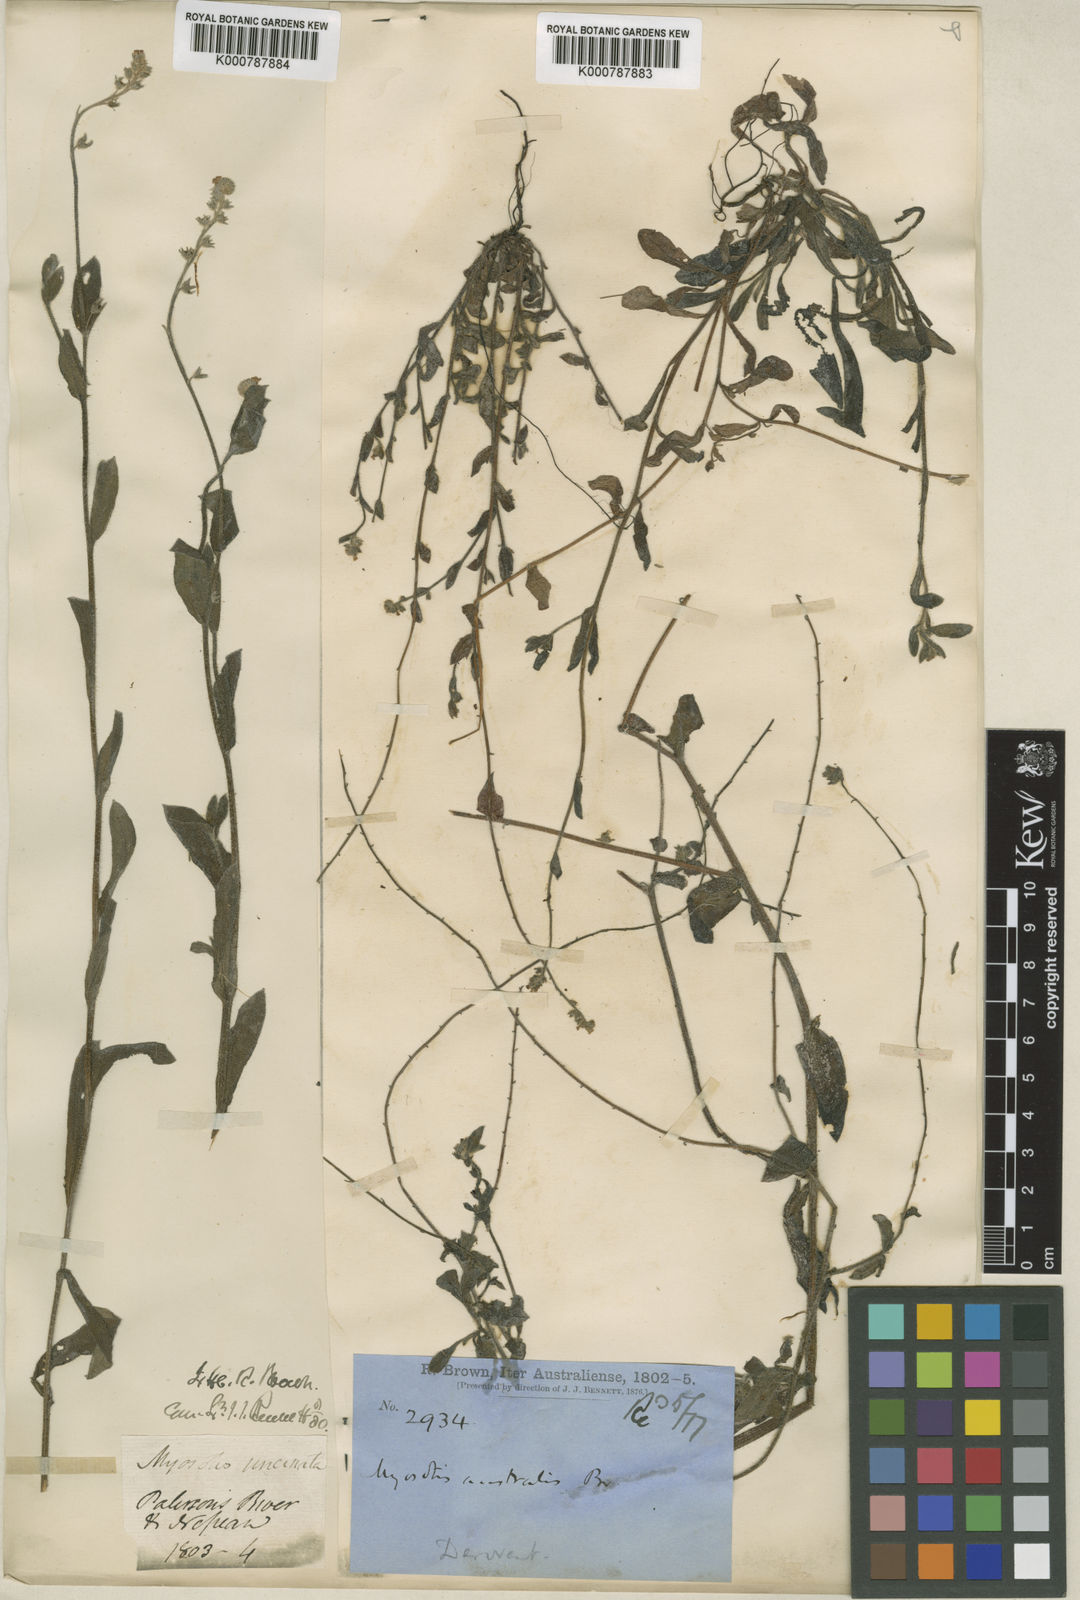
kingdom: Plantae
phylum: Tracheophyta
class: Magnoliopsida
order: Boraginales
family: Boraginaceae
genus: Myosotis
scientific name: Myosotis australis
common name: Australian forget-me-not
